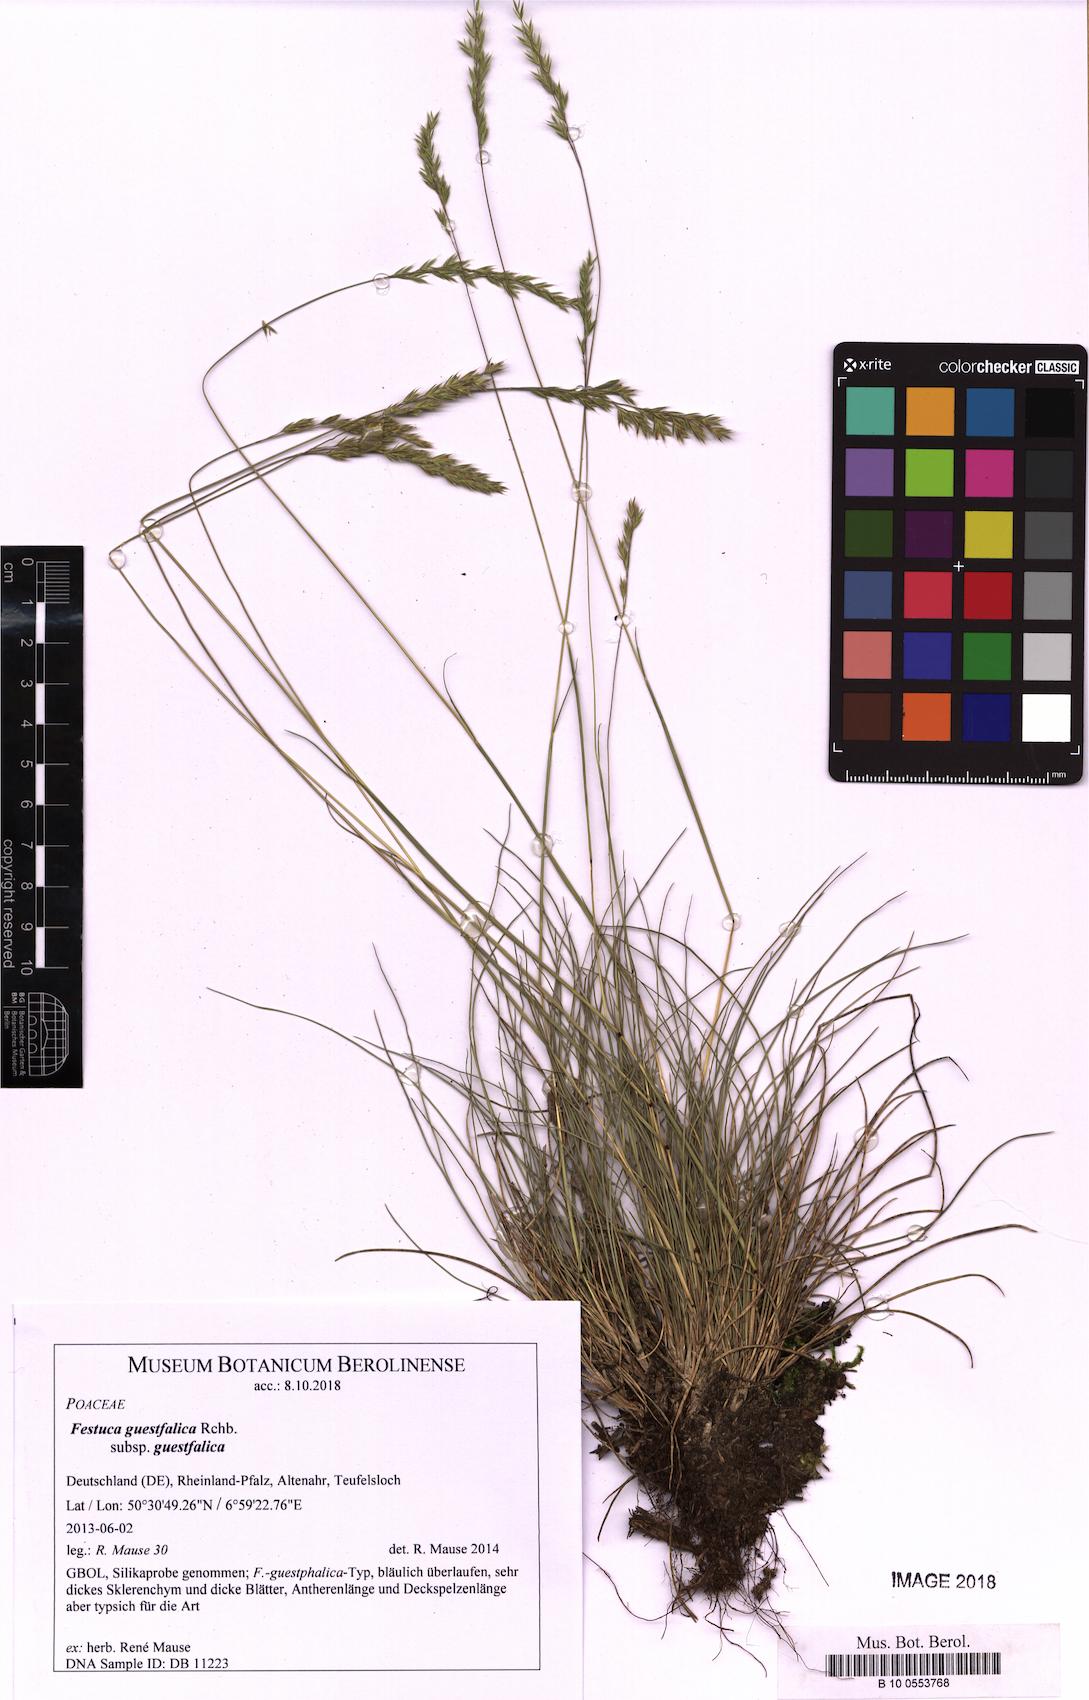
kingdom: Plantae
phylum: Tracheophyta
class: Liliopsida
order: Poales
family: Poaceae
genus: Festuca
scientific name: Festuca guestfalica
